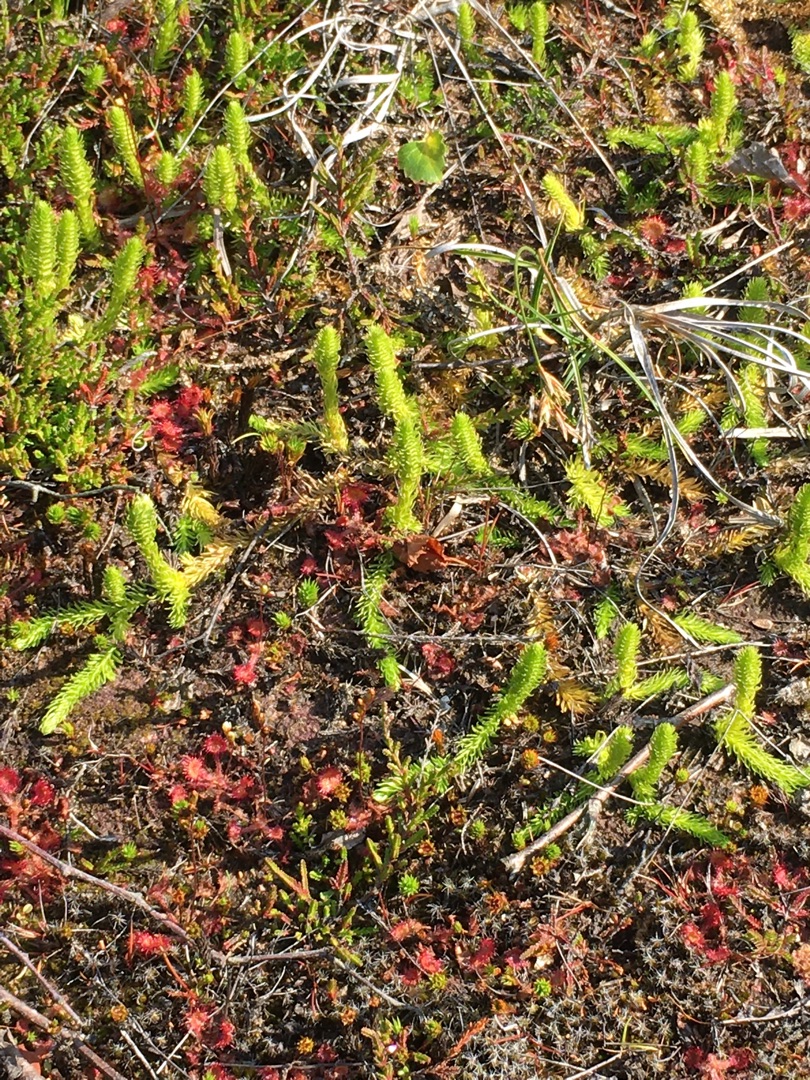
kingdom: Plantae
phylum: Tracheophyta
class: Lycopodiopsida
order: Lycopodiales
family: Lycopodiaceae
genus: Lycopodiella
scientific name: Lycopodiella inundata
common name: Liden ulvefod
